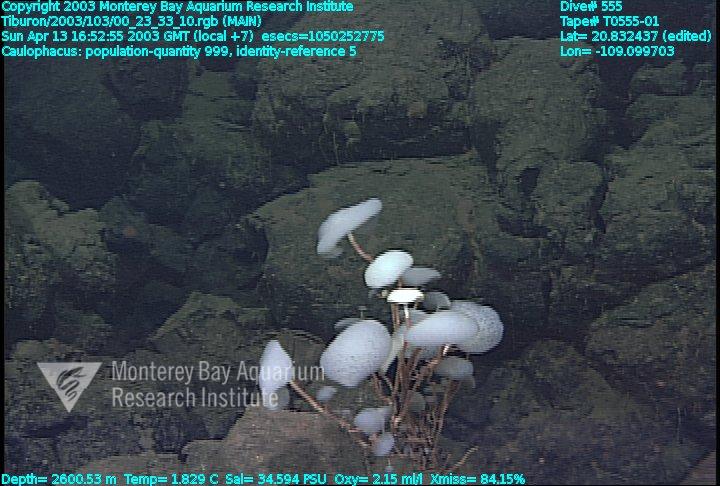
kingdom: Animalia
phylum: Porifera
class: Hexactinellida
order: Lyssacinosida
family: Rossellidae
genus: Caulophacus
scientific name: Caulophacus
